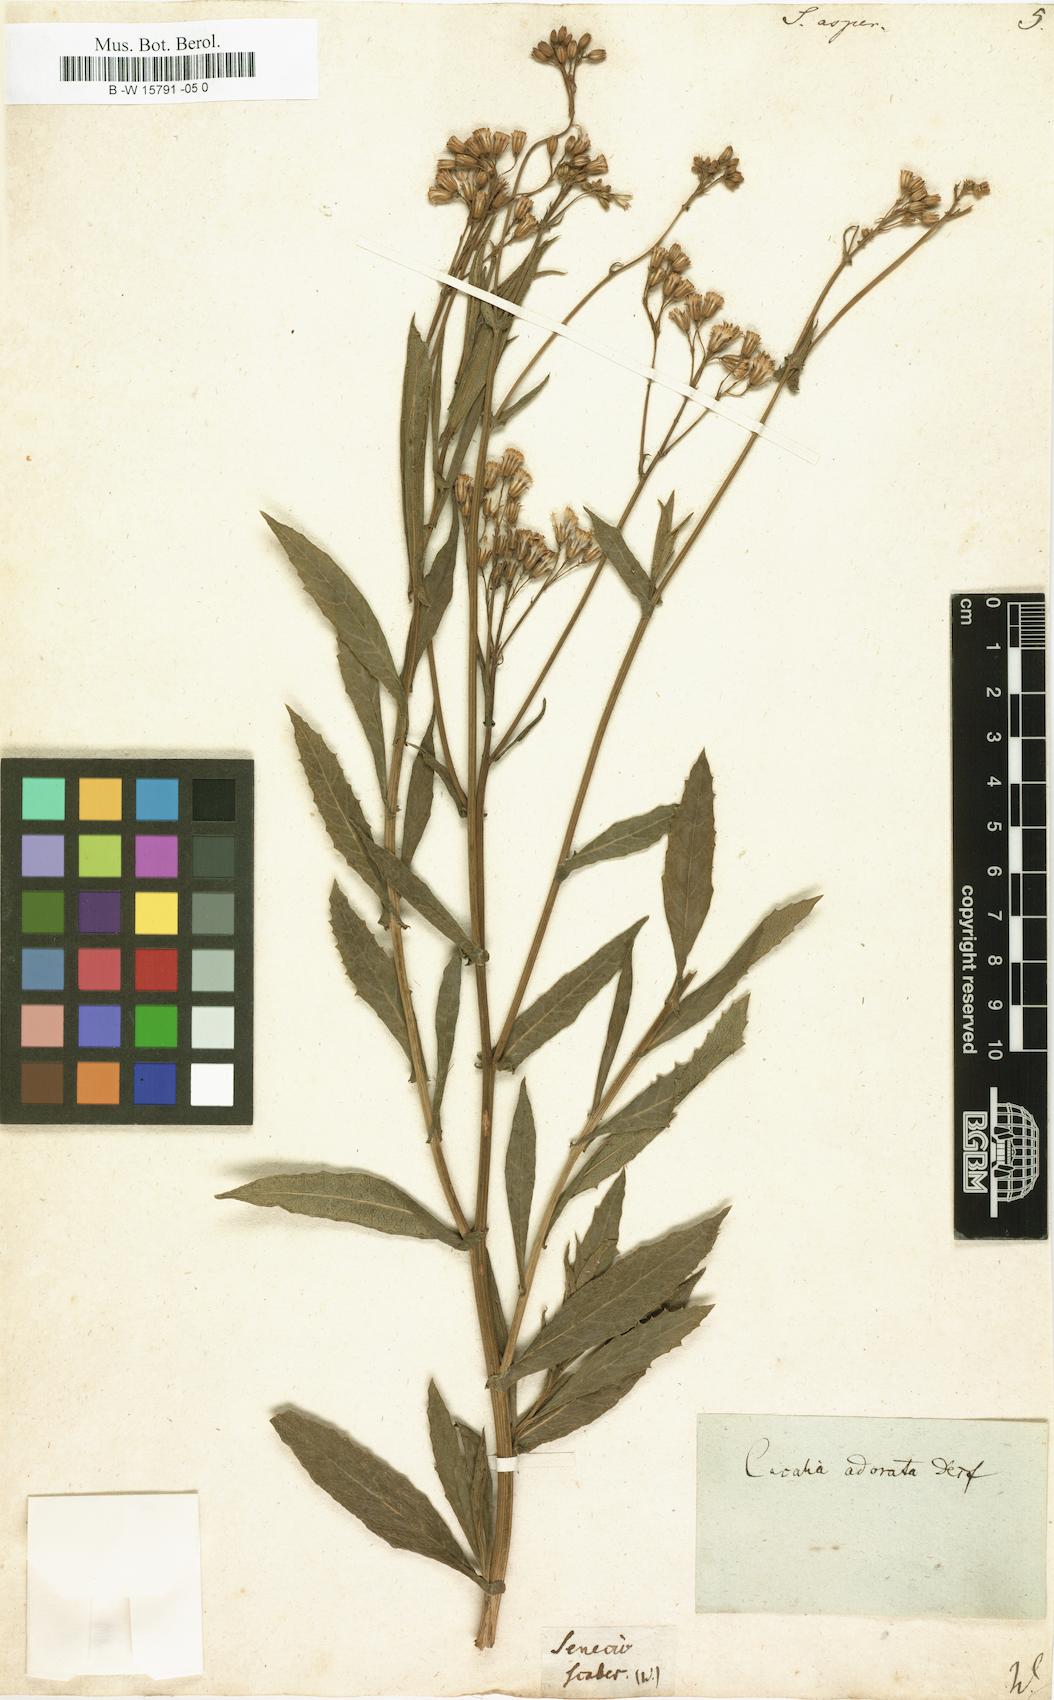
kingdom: Plantae
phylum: Tracheophyta
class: Magnoliopsida
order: Asterales
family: Asteraceae
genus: Senecio
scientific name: Senecio
